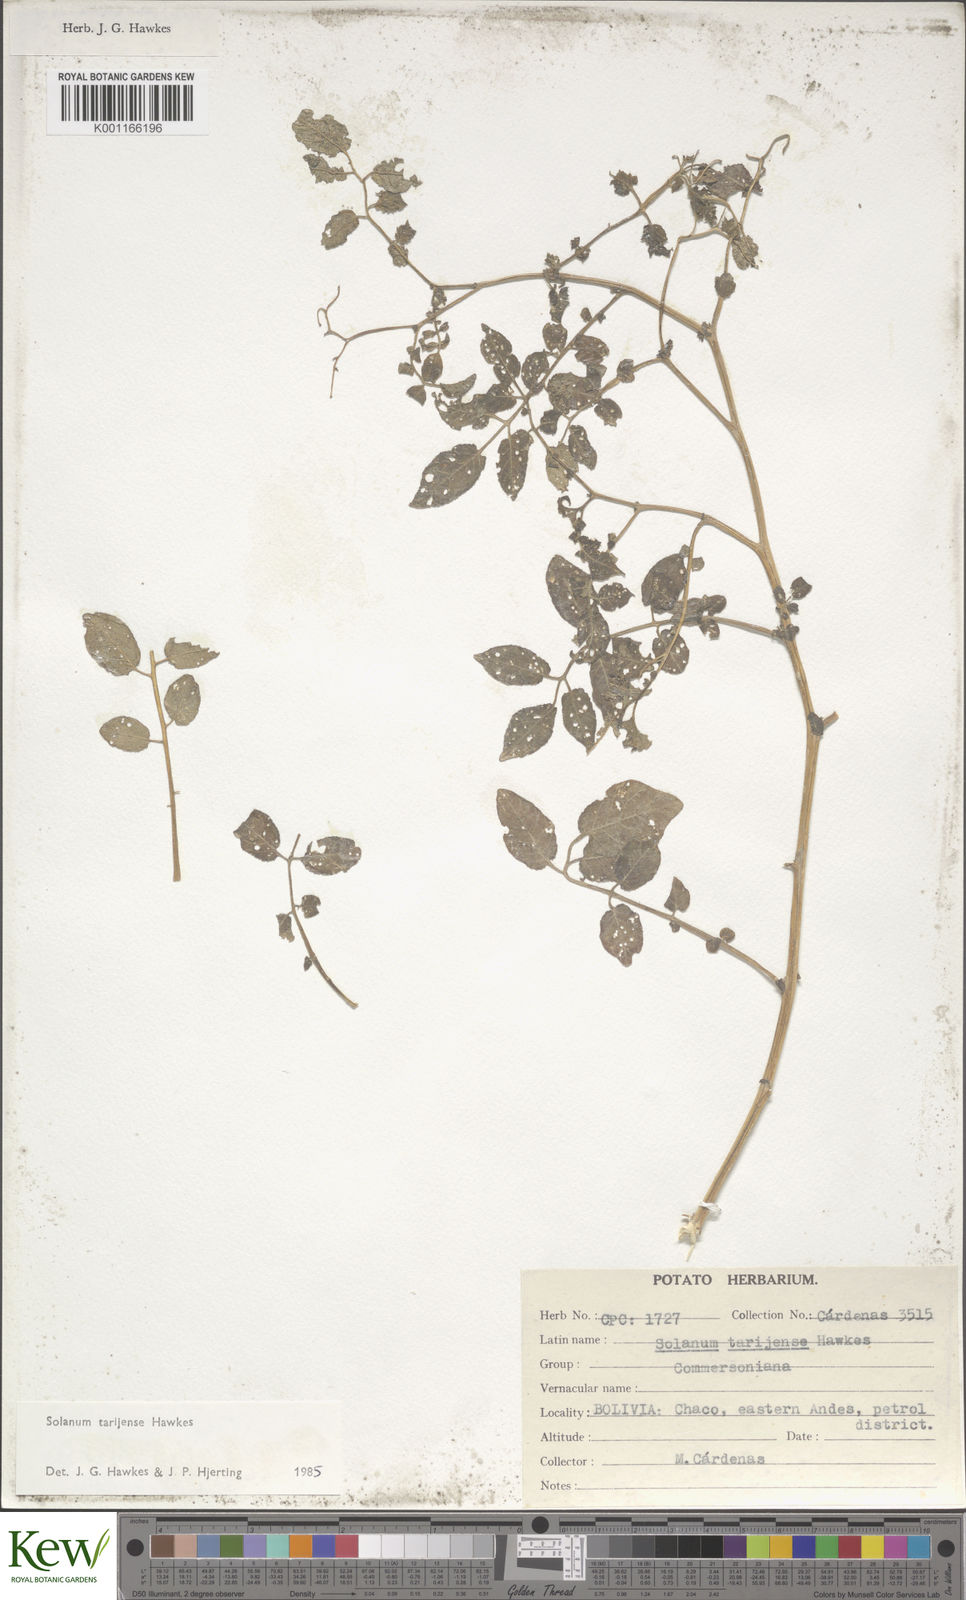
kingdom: Plantae
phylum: Tracheophyta
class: Magnoliopsida
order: Solanales
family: Solanaceae
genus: Solanum
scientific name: Solanum tarijense
